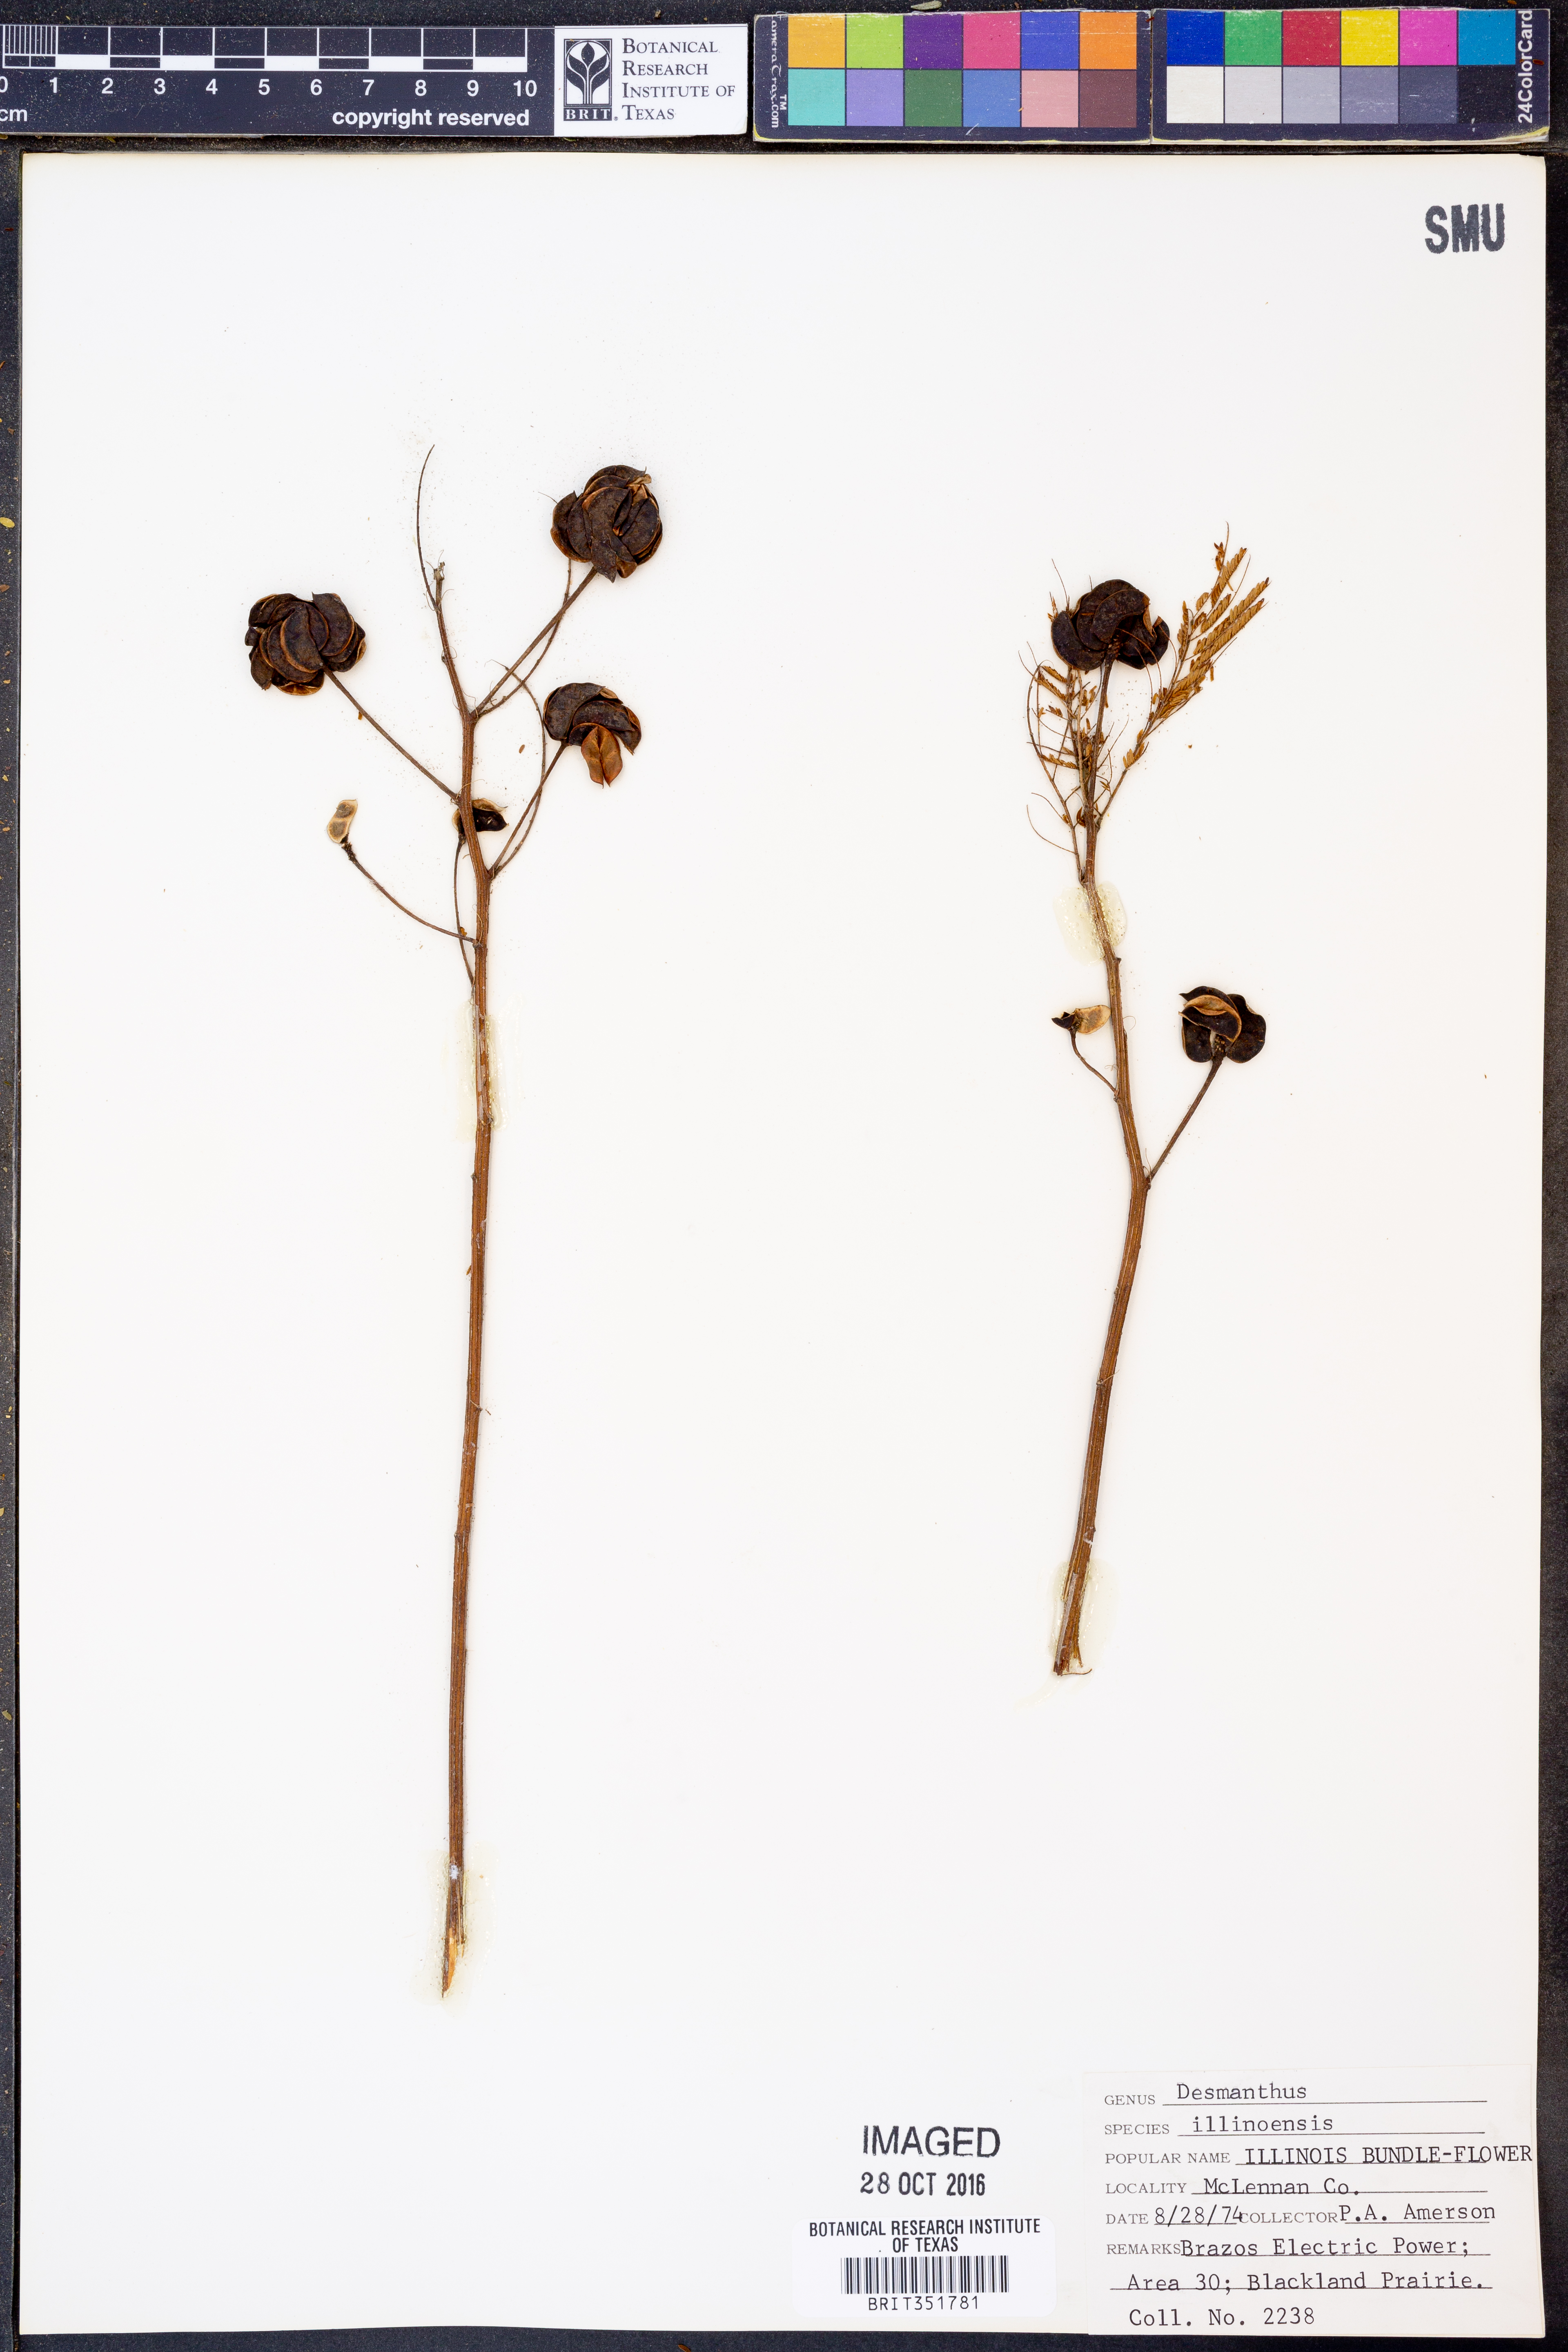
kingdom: Plantae
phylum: Tracheophyta
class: Magnoliopsida
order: Fabales
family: Fabaceae
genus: Desmanthus
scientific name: Desmanthus illinoensis
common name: Illinois bundle-flower
